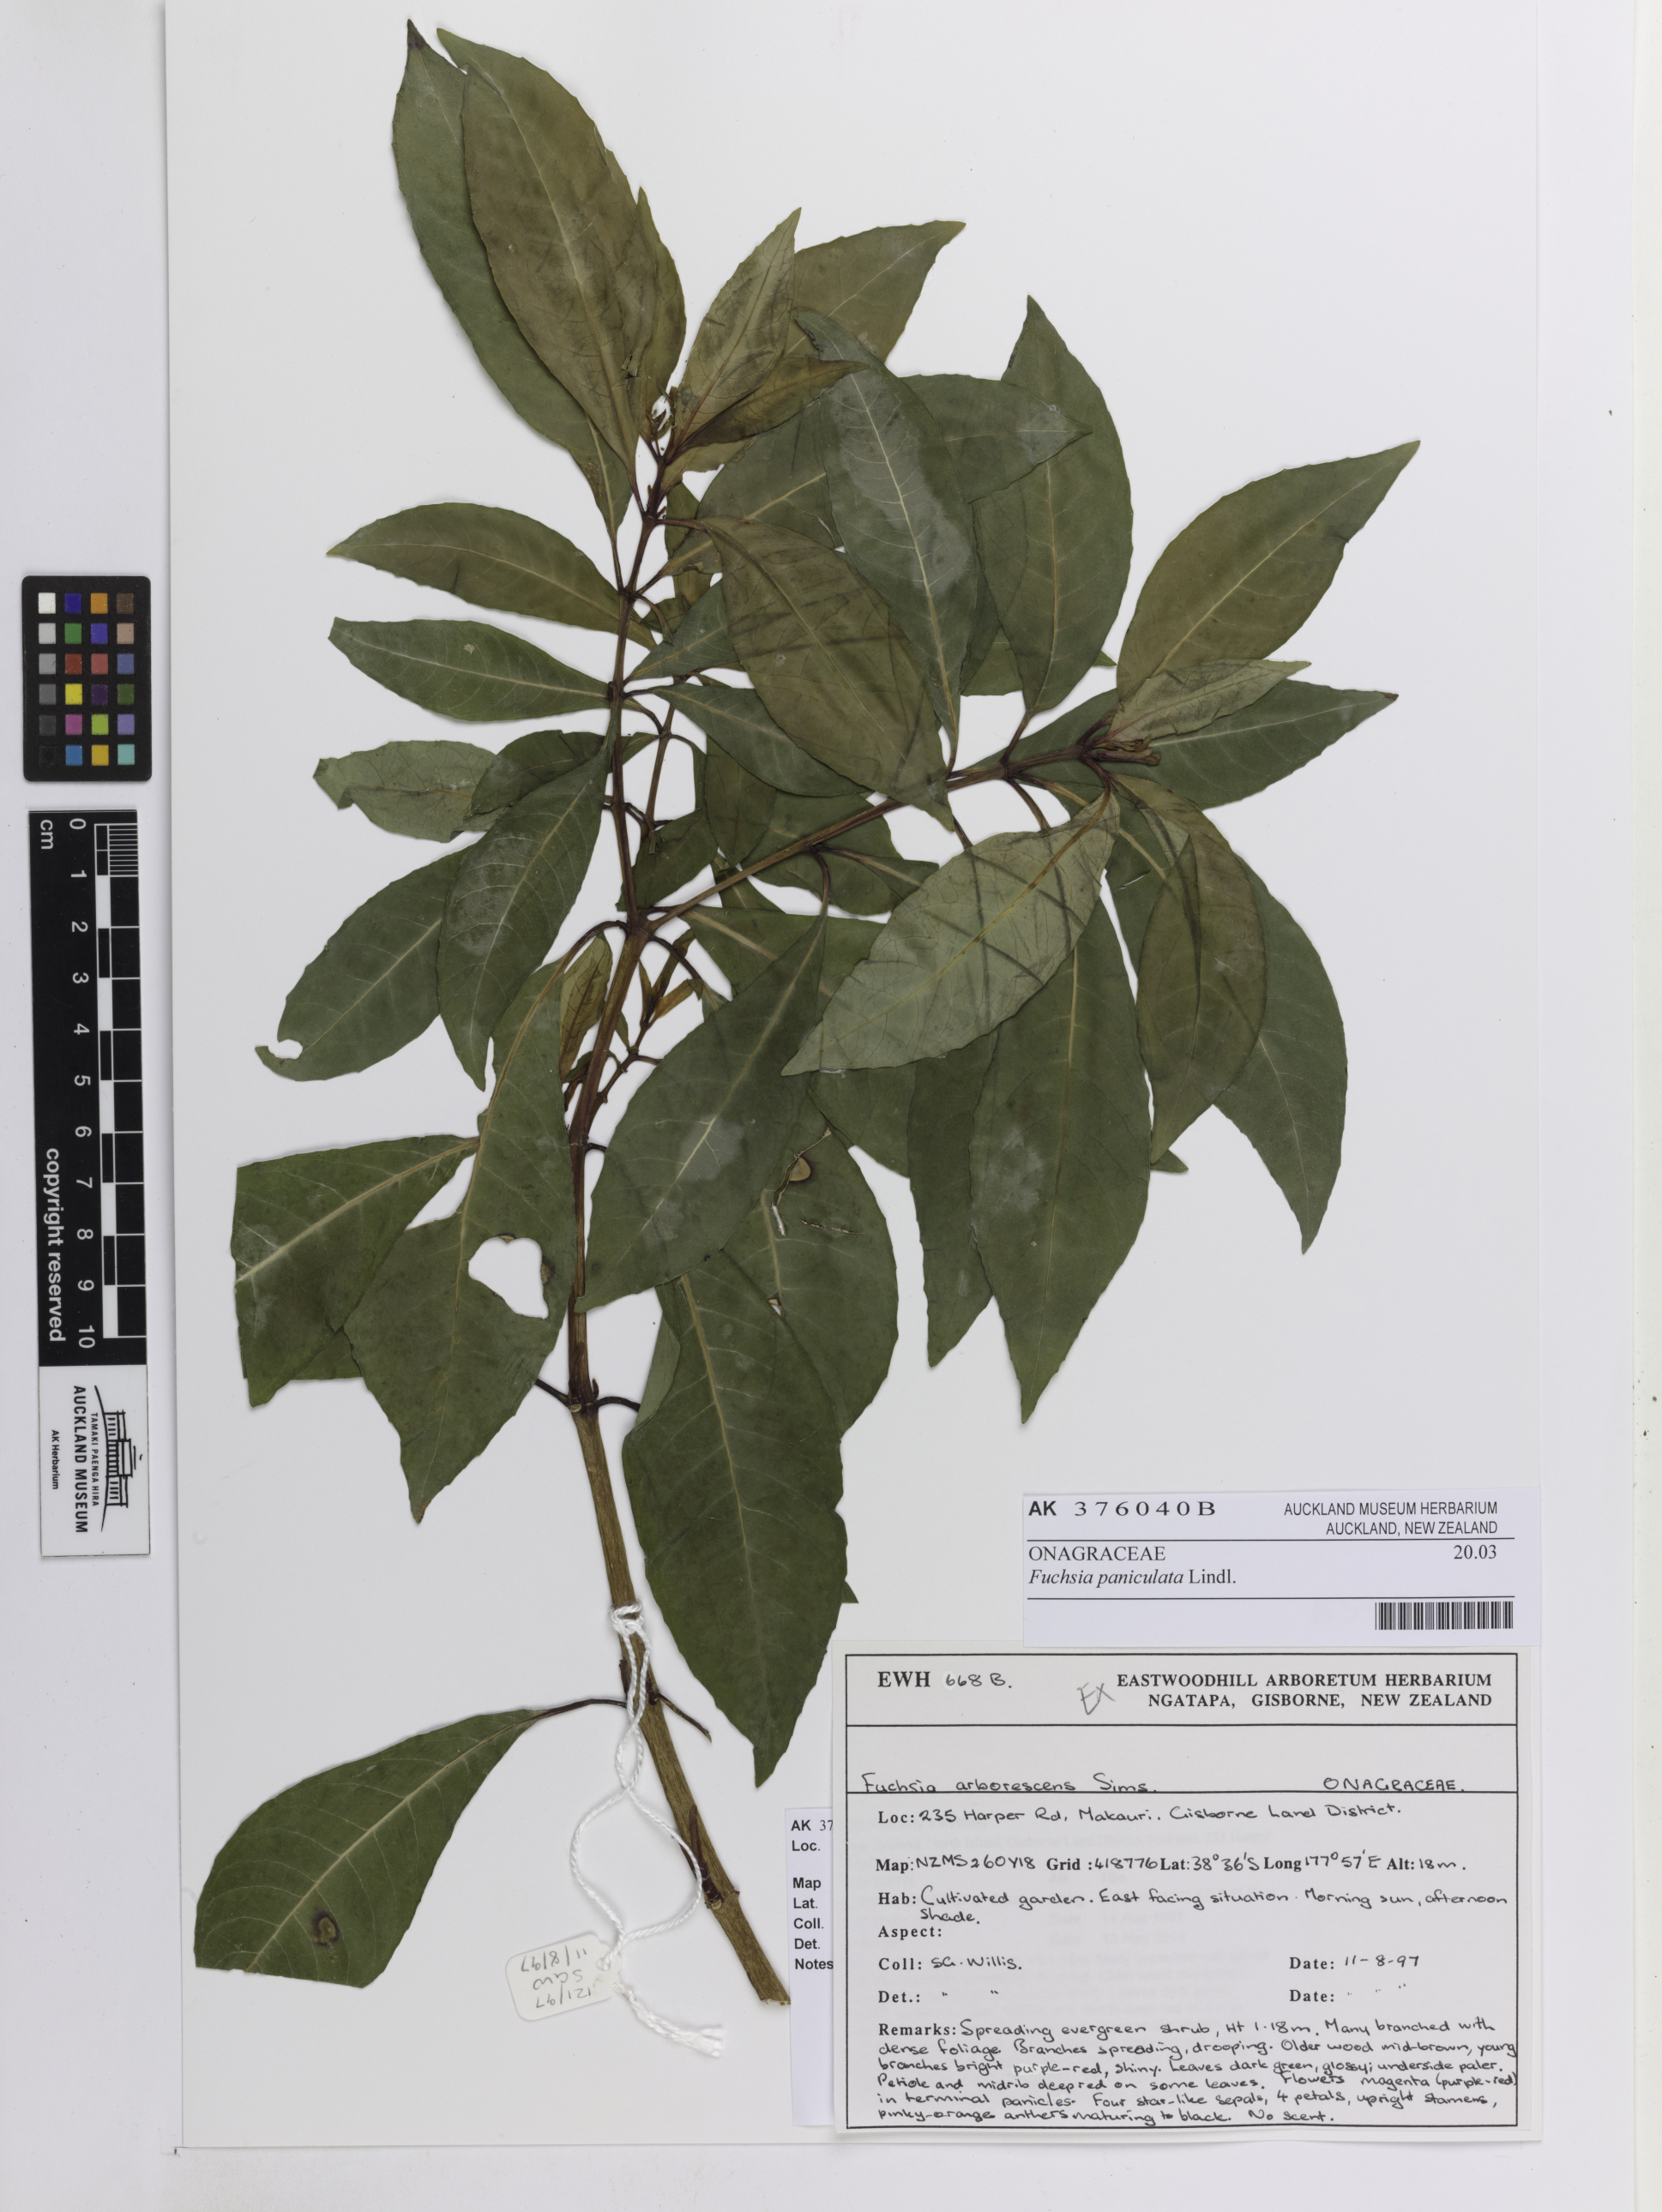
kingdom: Plantae
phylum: Tracheophyta
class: Magnoliopsida
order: Myrtales
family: Onagraceae
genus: Fuchsia
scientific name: Fuchsia paniculata
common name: Shrubby fuchsia
